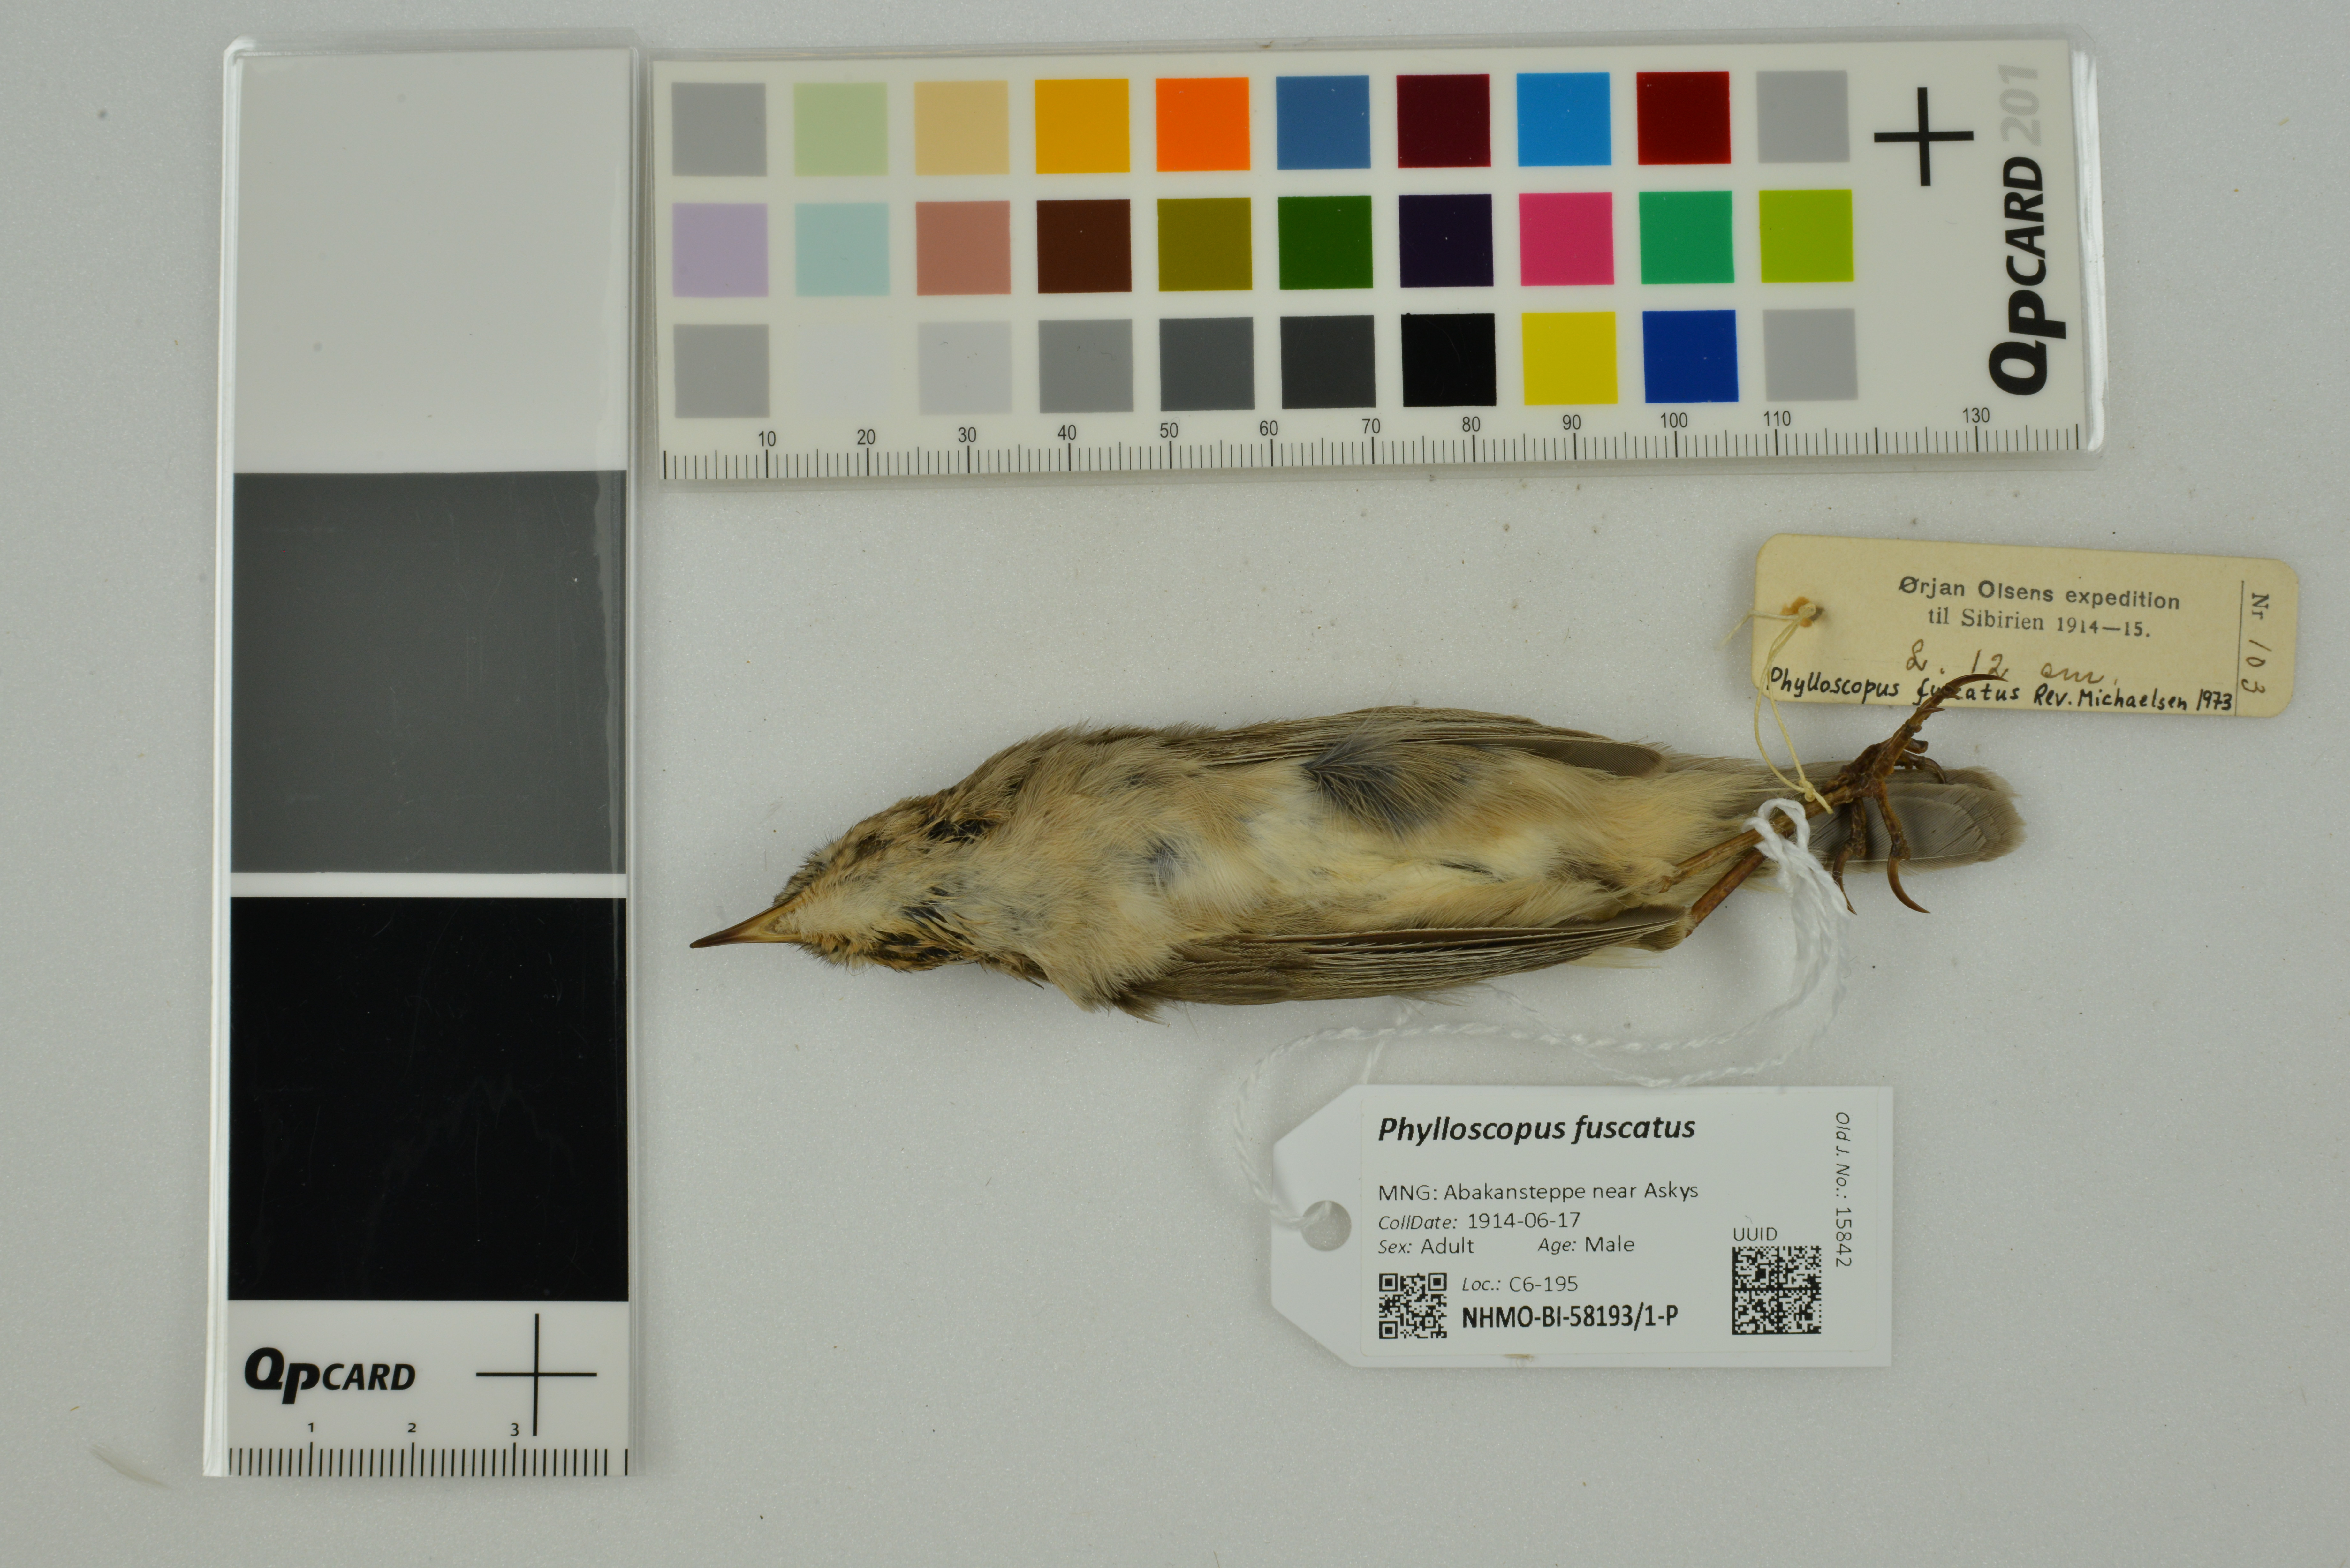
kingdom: Animalia
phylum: Chordata
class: Aves
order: Passeriformes
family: Phylloscopidae
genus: Phylloscopus
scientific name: Phylloscopus fuscatus
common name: Dusky warbler
